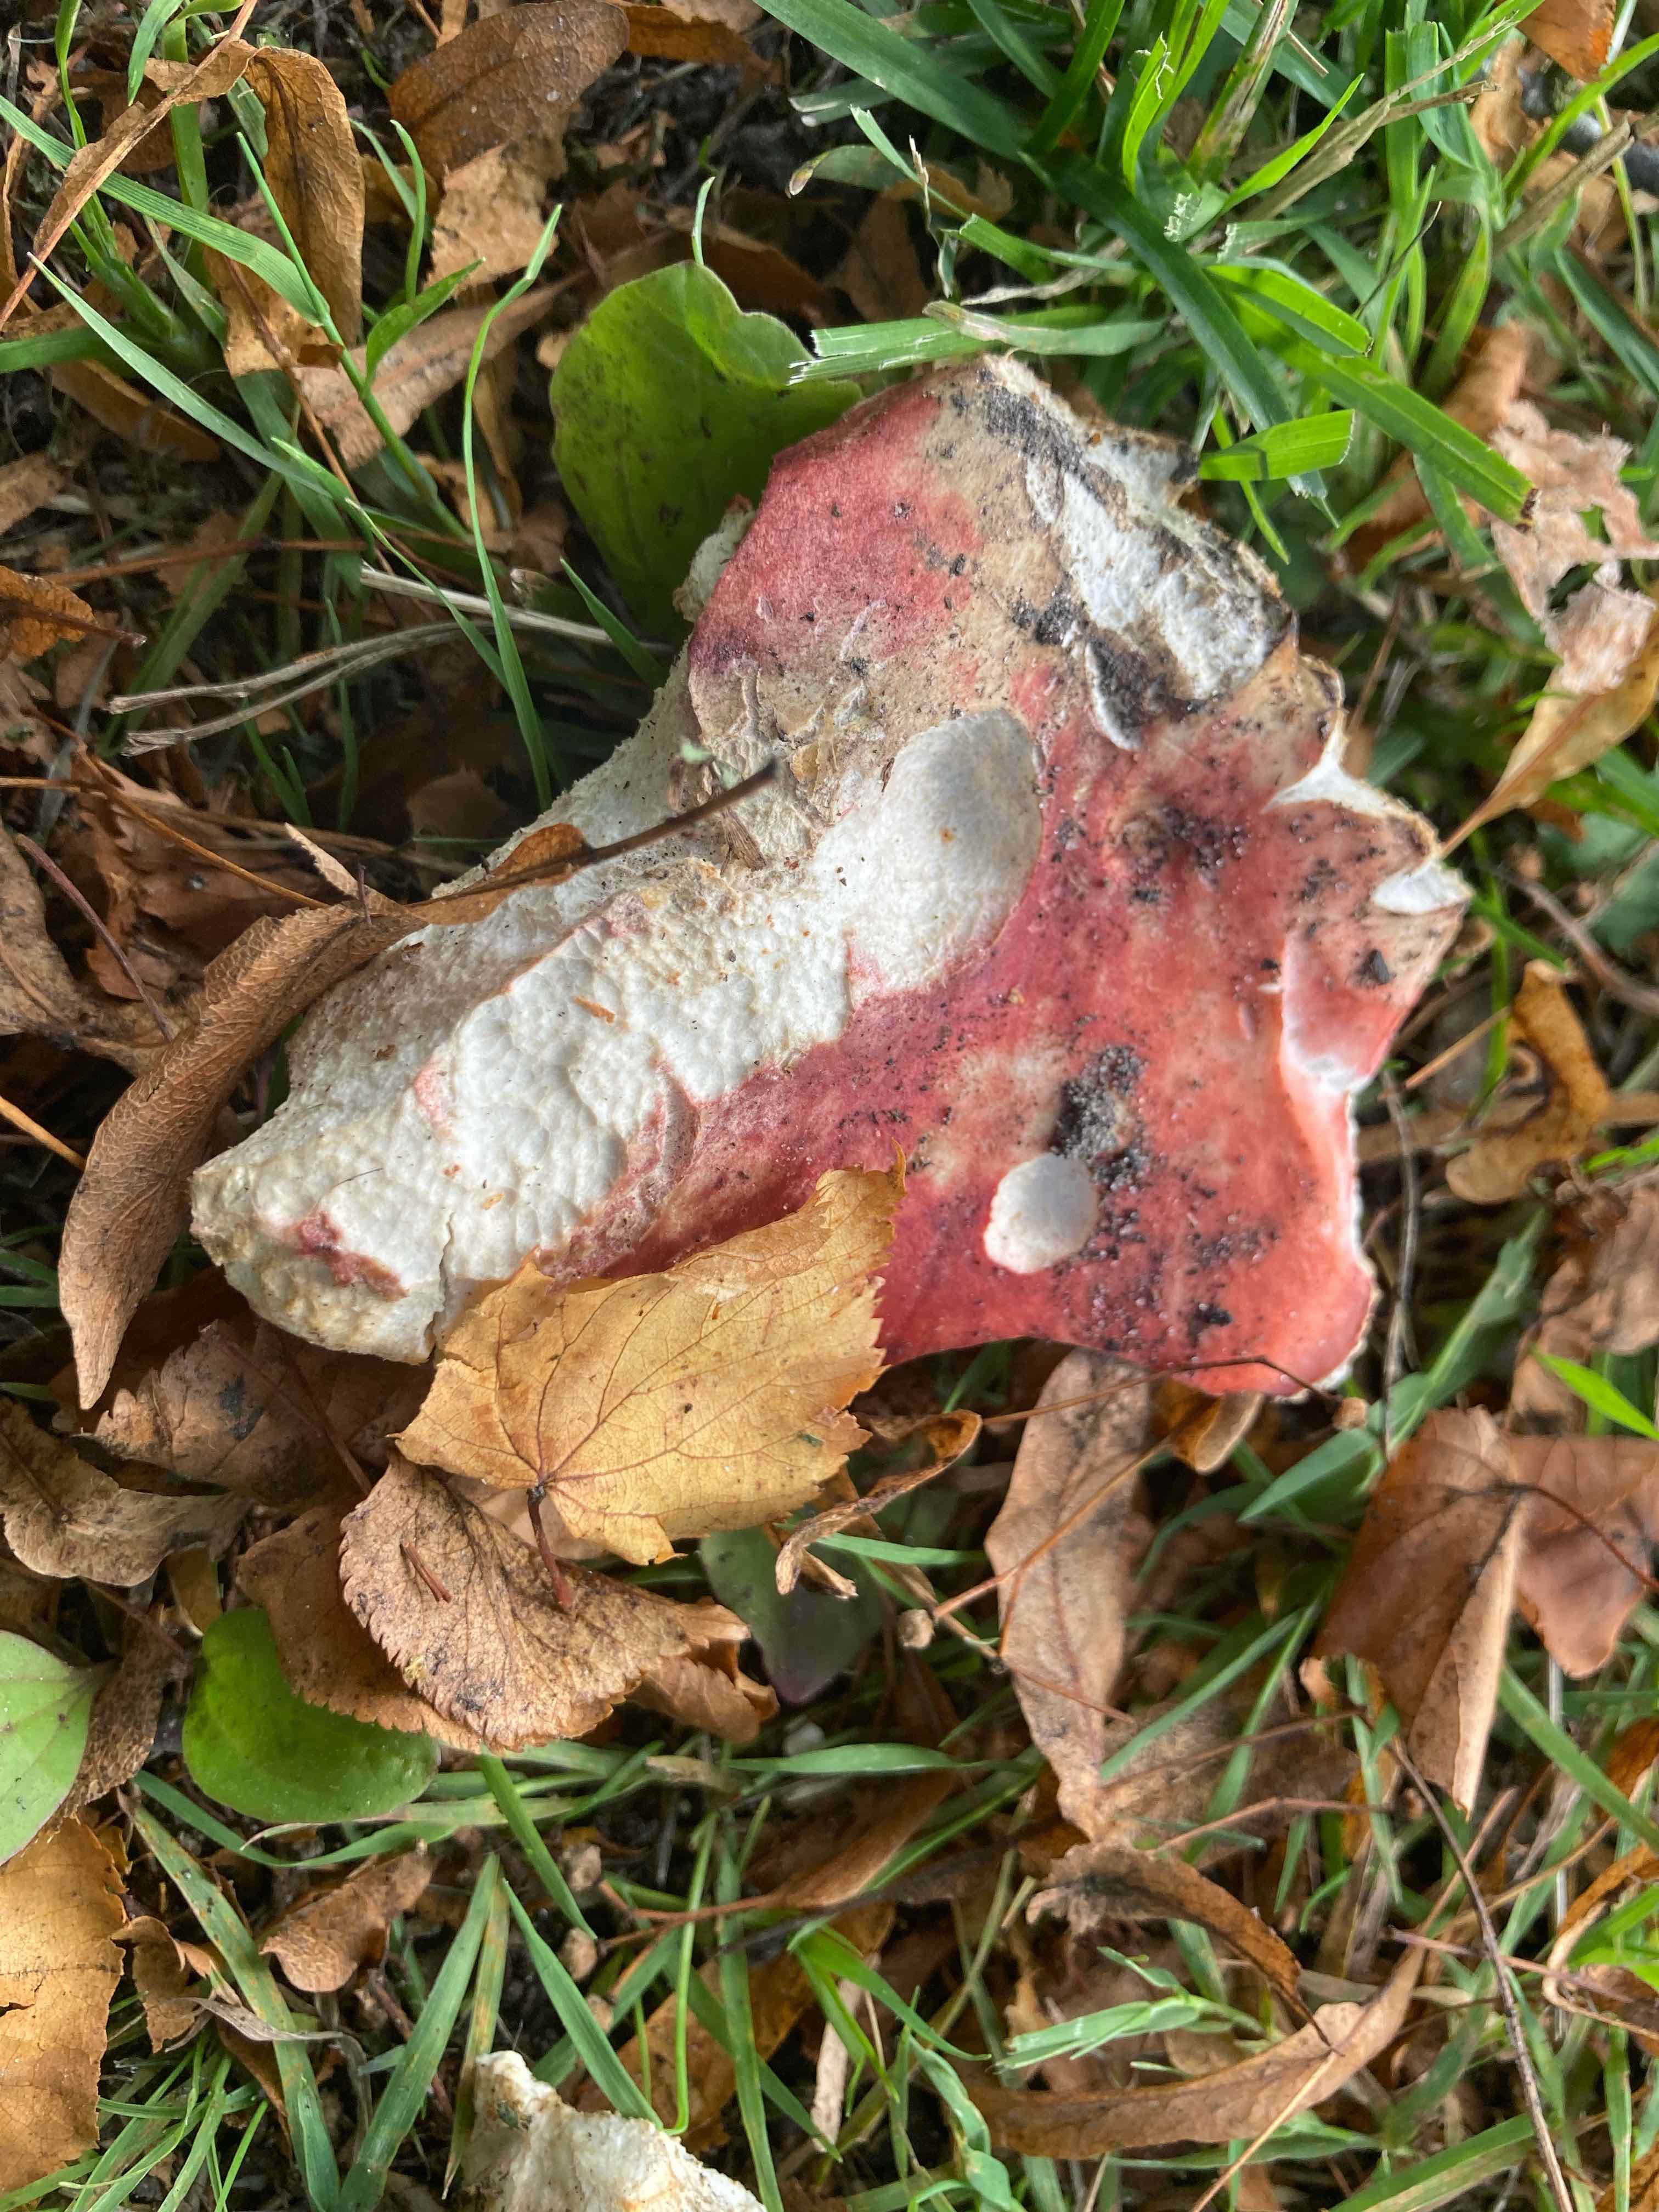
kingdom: Fungi
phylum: Basidiomycota
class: Agaricomycetes
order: Russulales
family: Russulaceae
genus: Russula
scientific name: Russula
